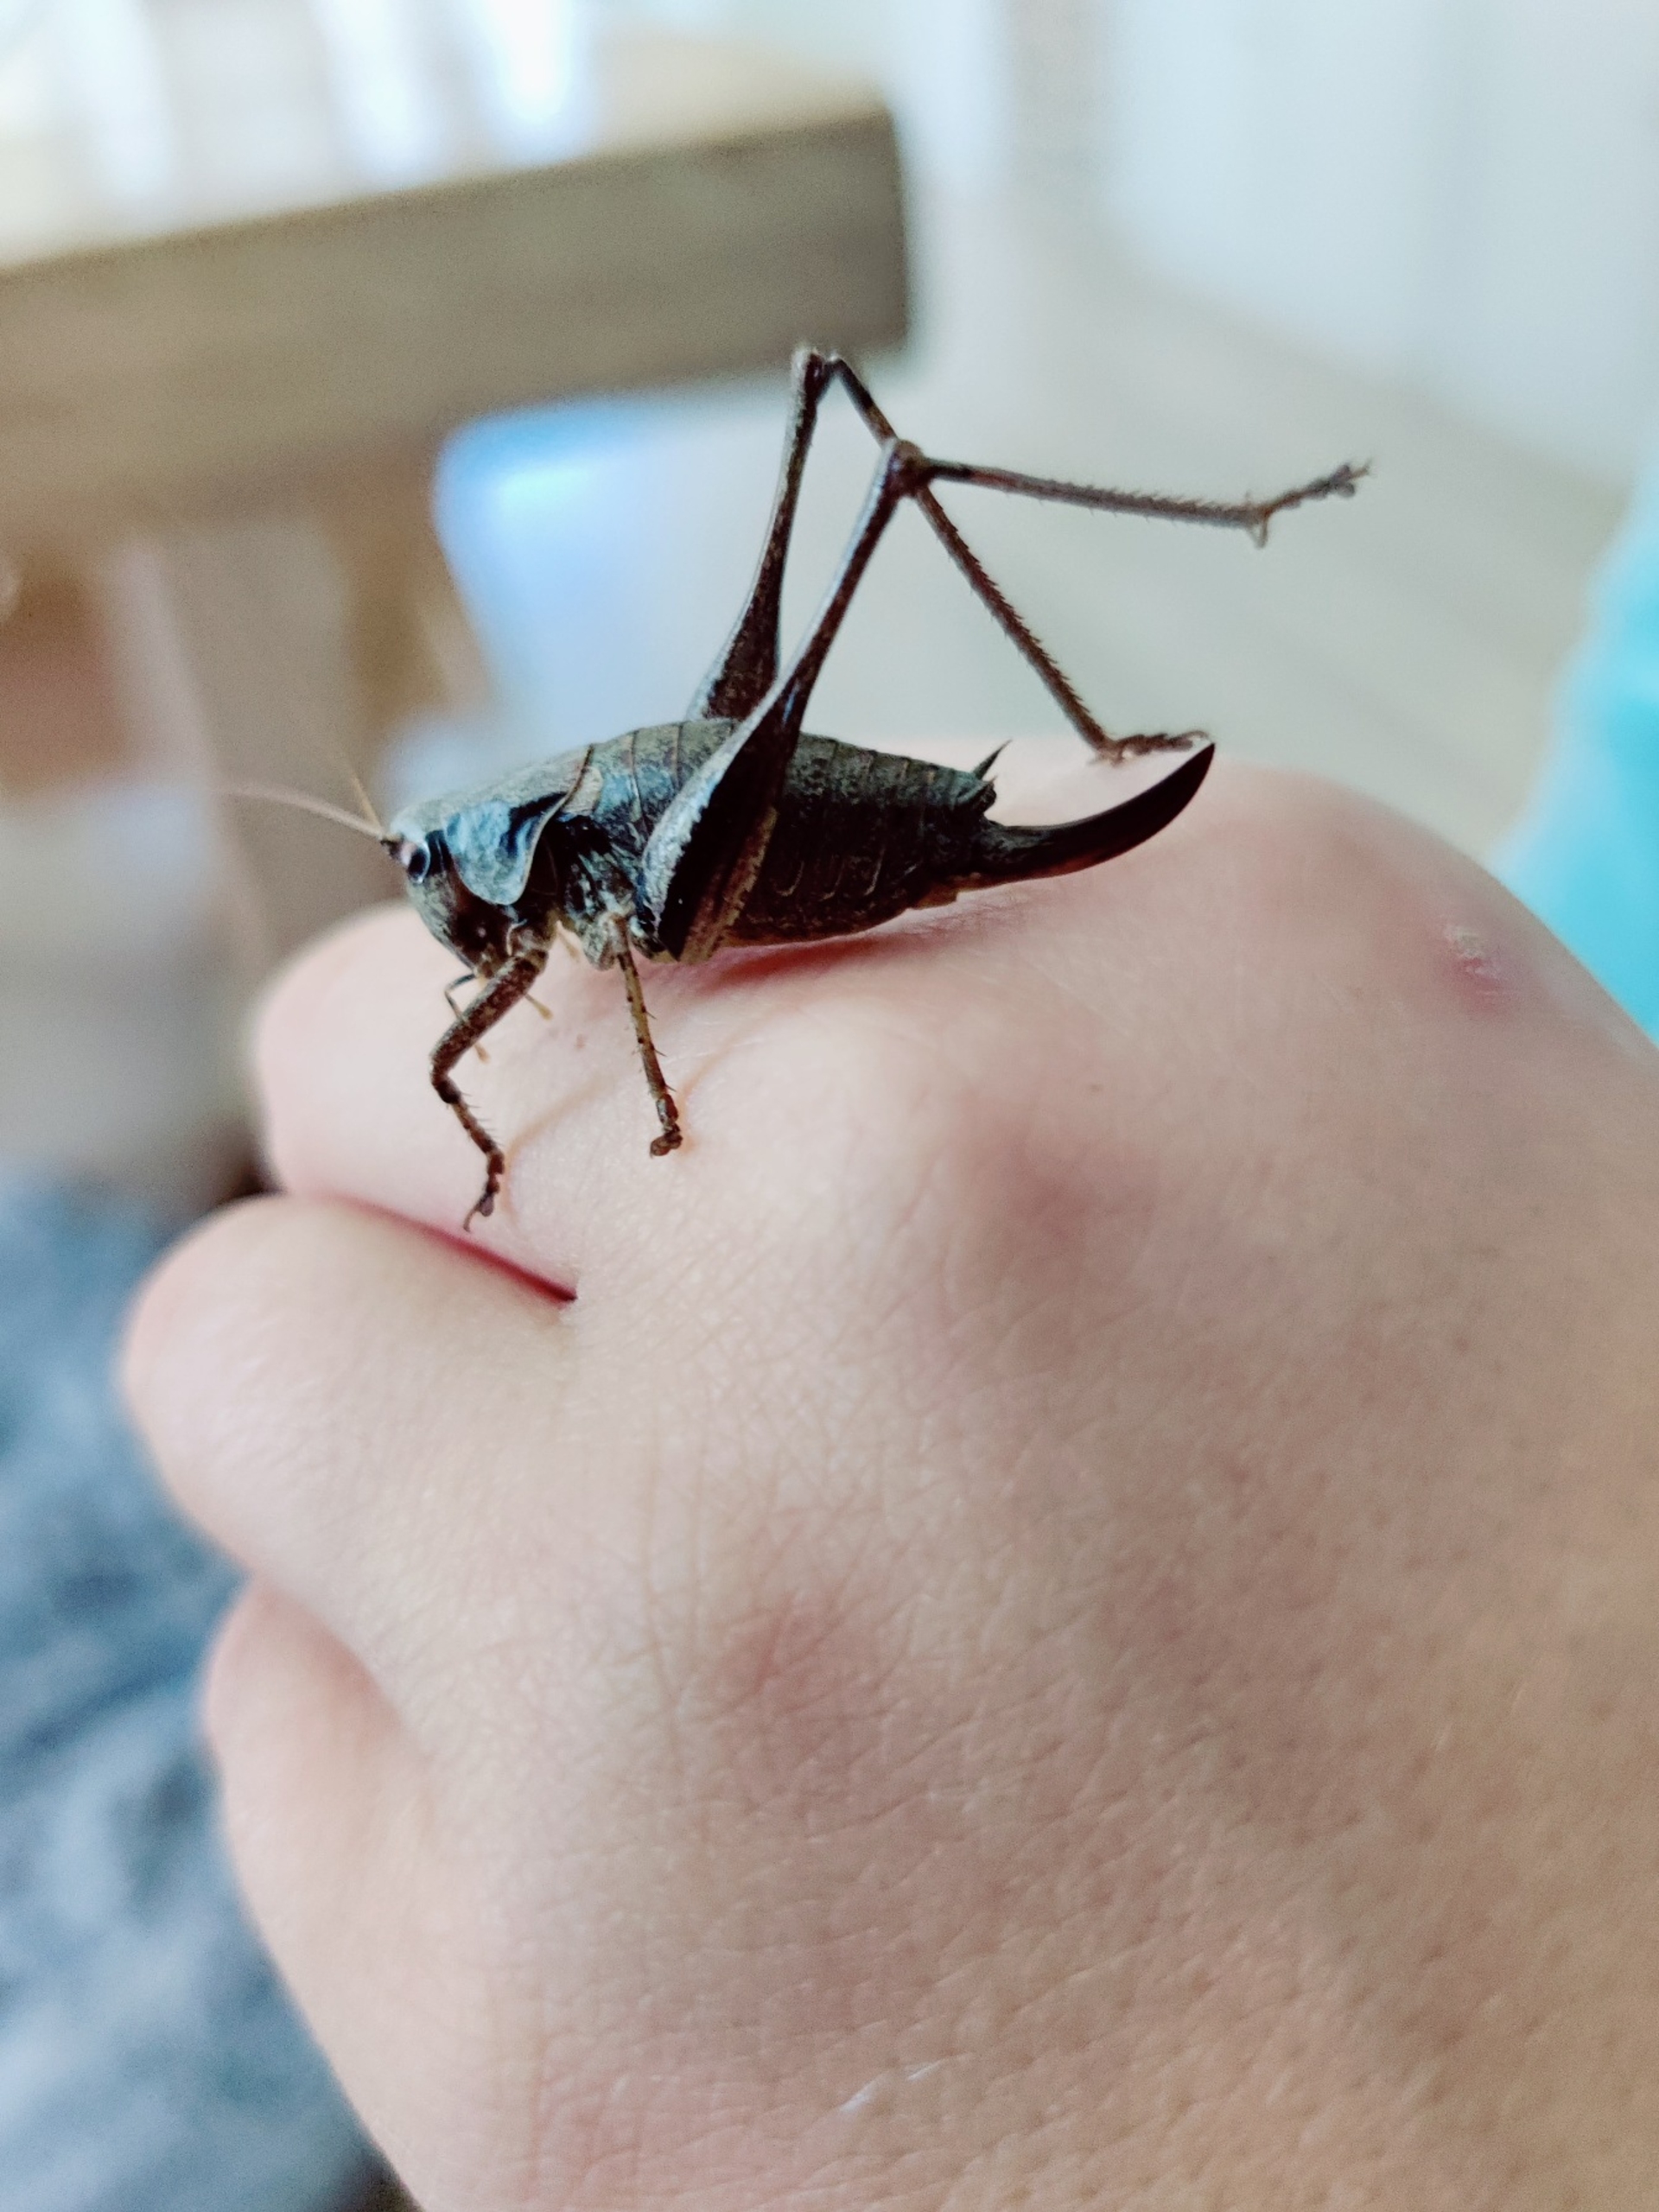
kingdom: Animalia
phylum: Arthropoda
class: Insecta
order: Orthoptera
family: Tettigoniidae
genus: Pholidoptera
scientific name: Pholidoptera griseoaptera
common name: Buskgræshoppe
